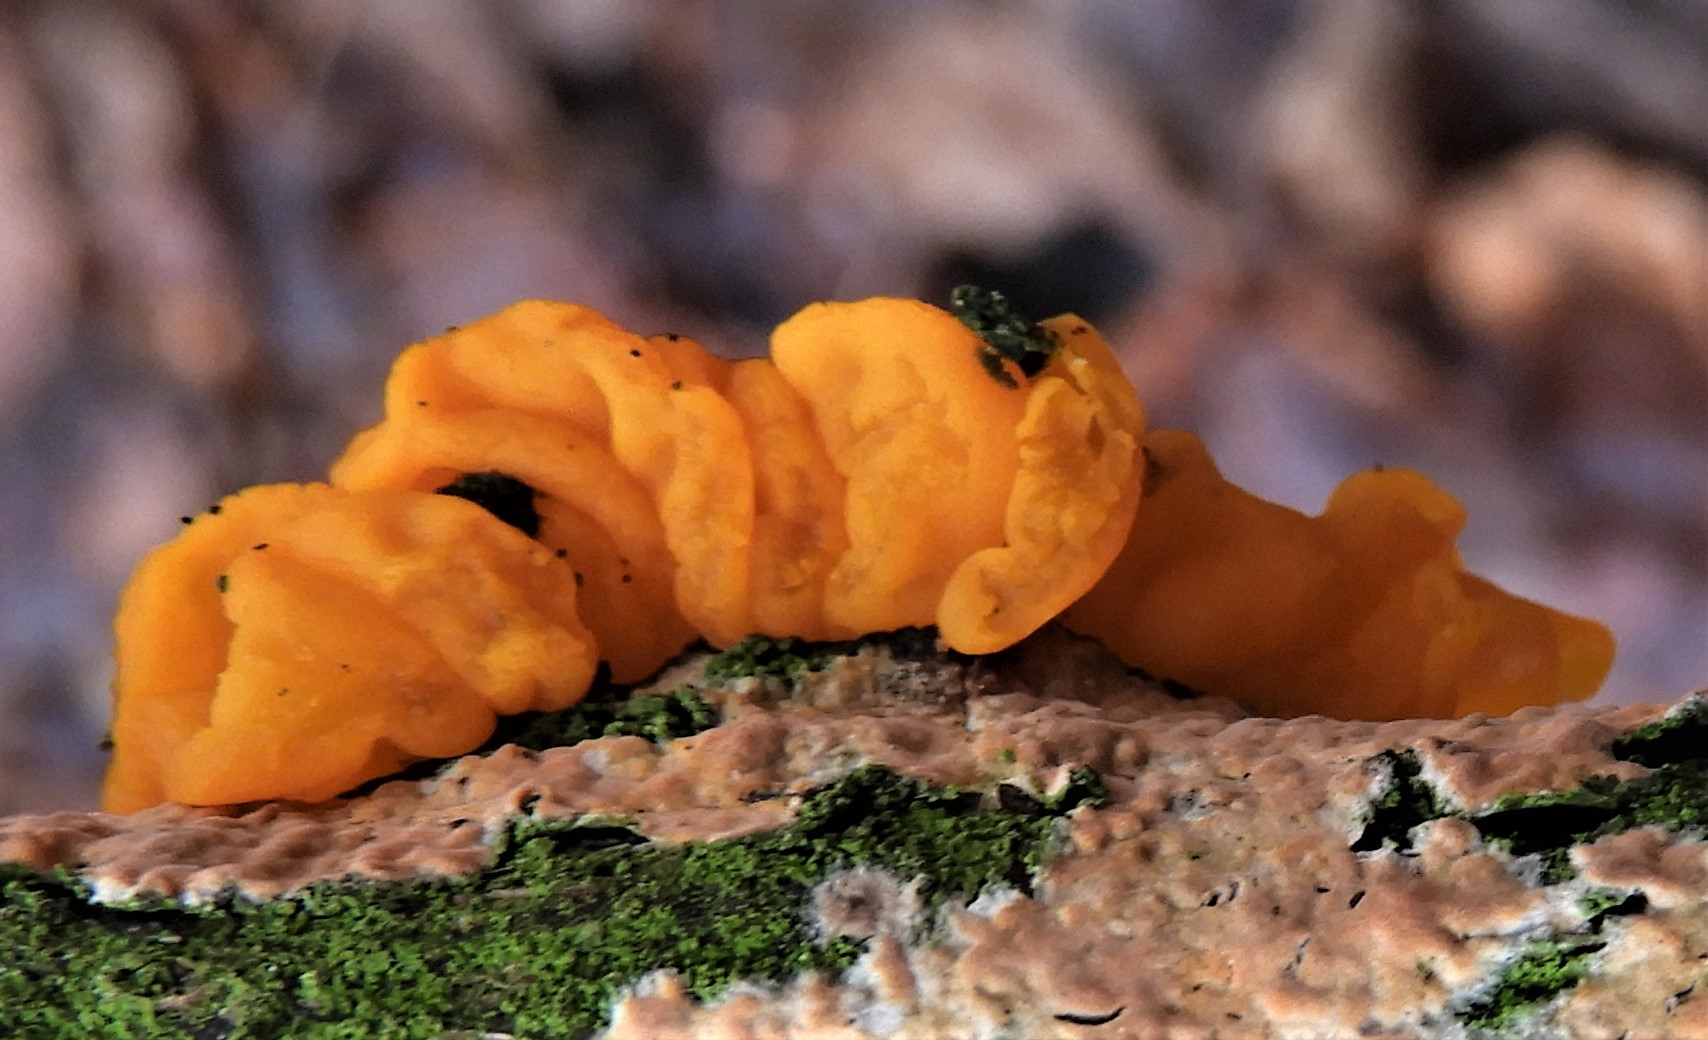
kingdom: Fungi
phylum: Basidiomycota
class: Tremellomycetes
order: Tremellales
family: Tremellaceae
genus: Tremella
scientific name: Tremella mesenterica
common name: gul bævresvamp
